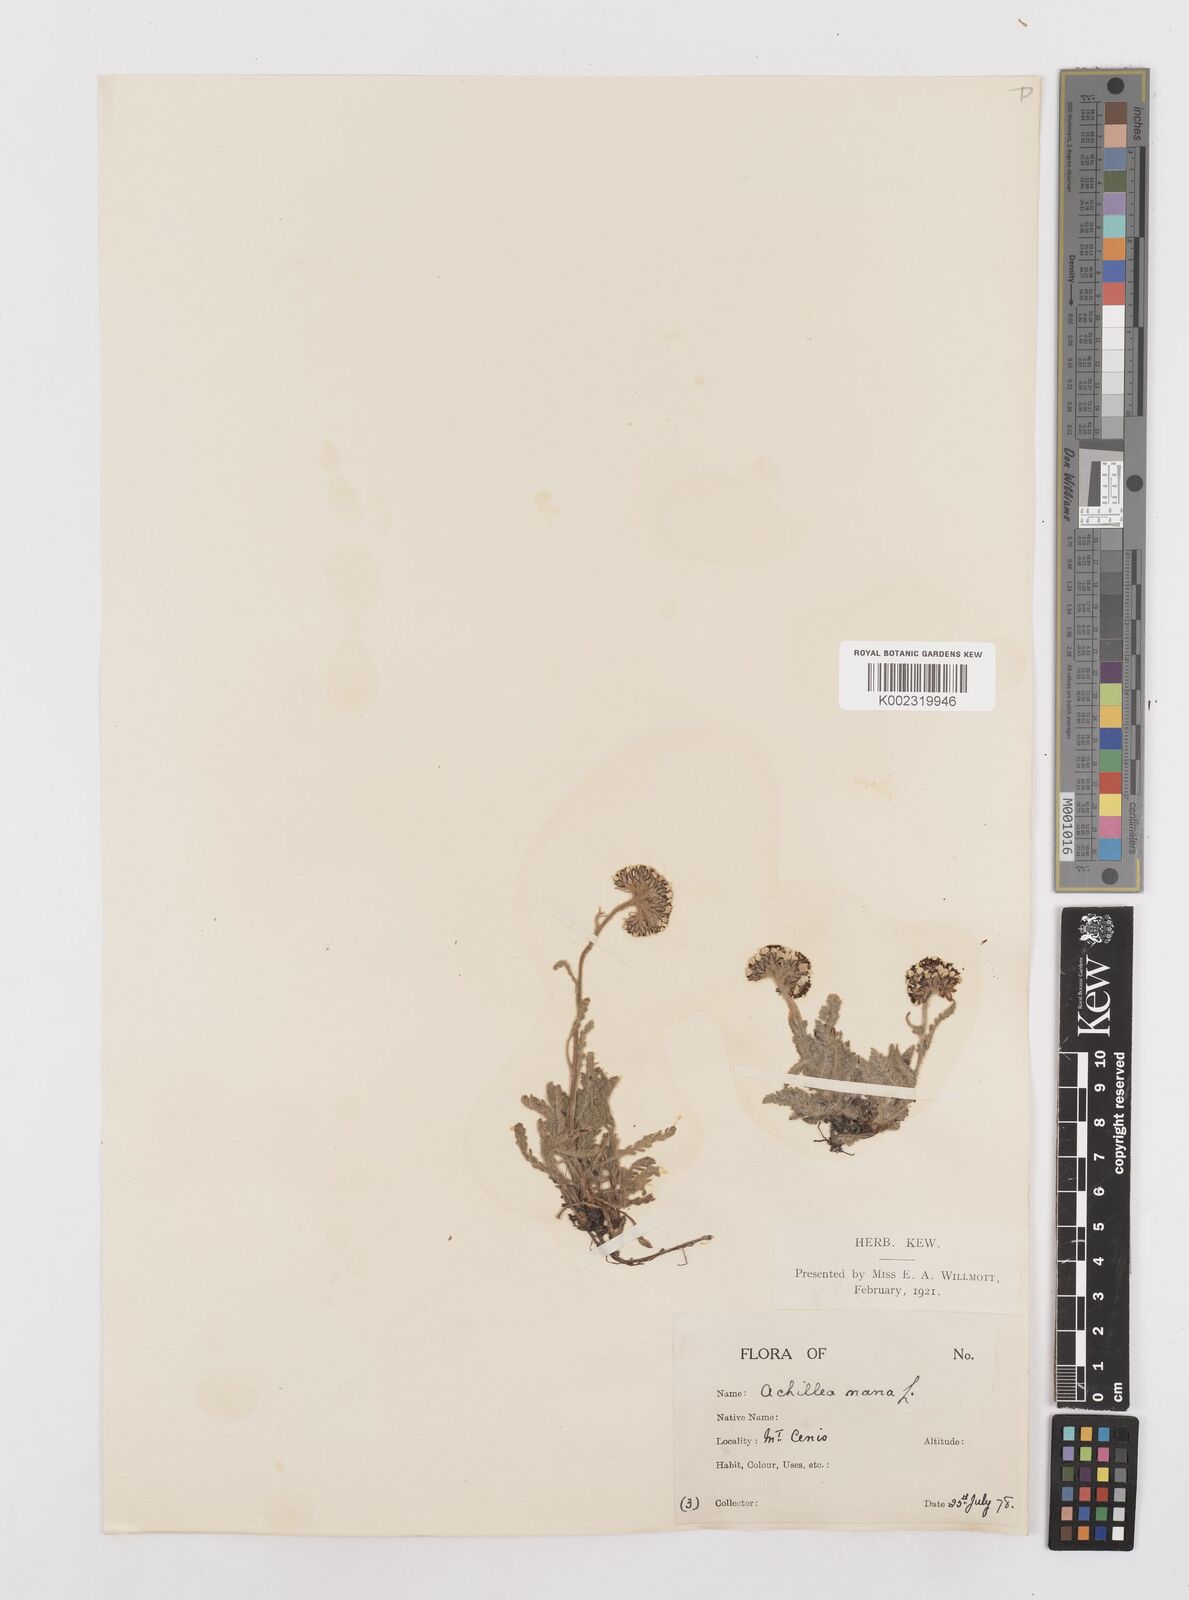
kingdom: Plantae
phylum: Tracheophyta
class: Magnoliopsida
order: Asterales
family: Asteraceae
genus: Achillea
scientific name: Achillea
